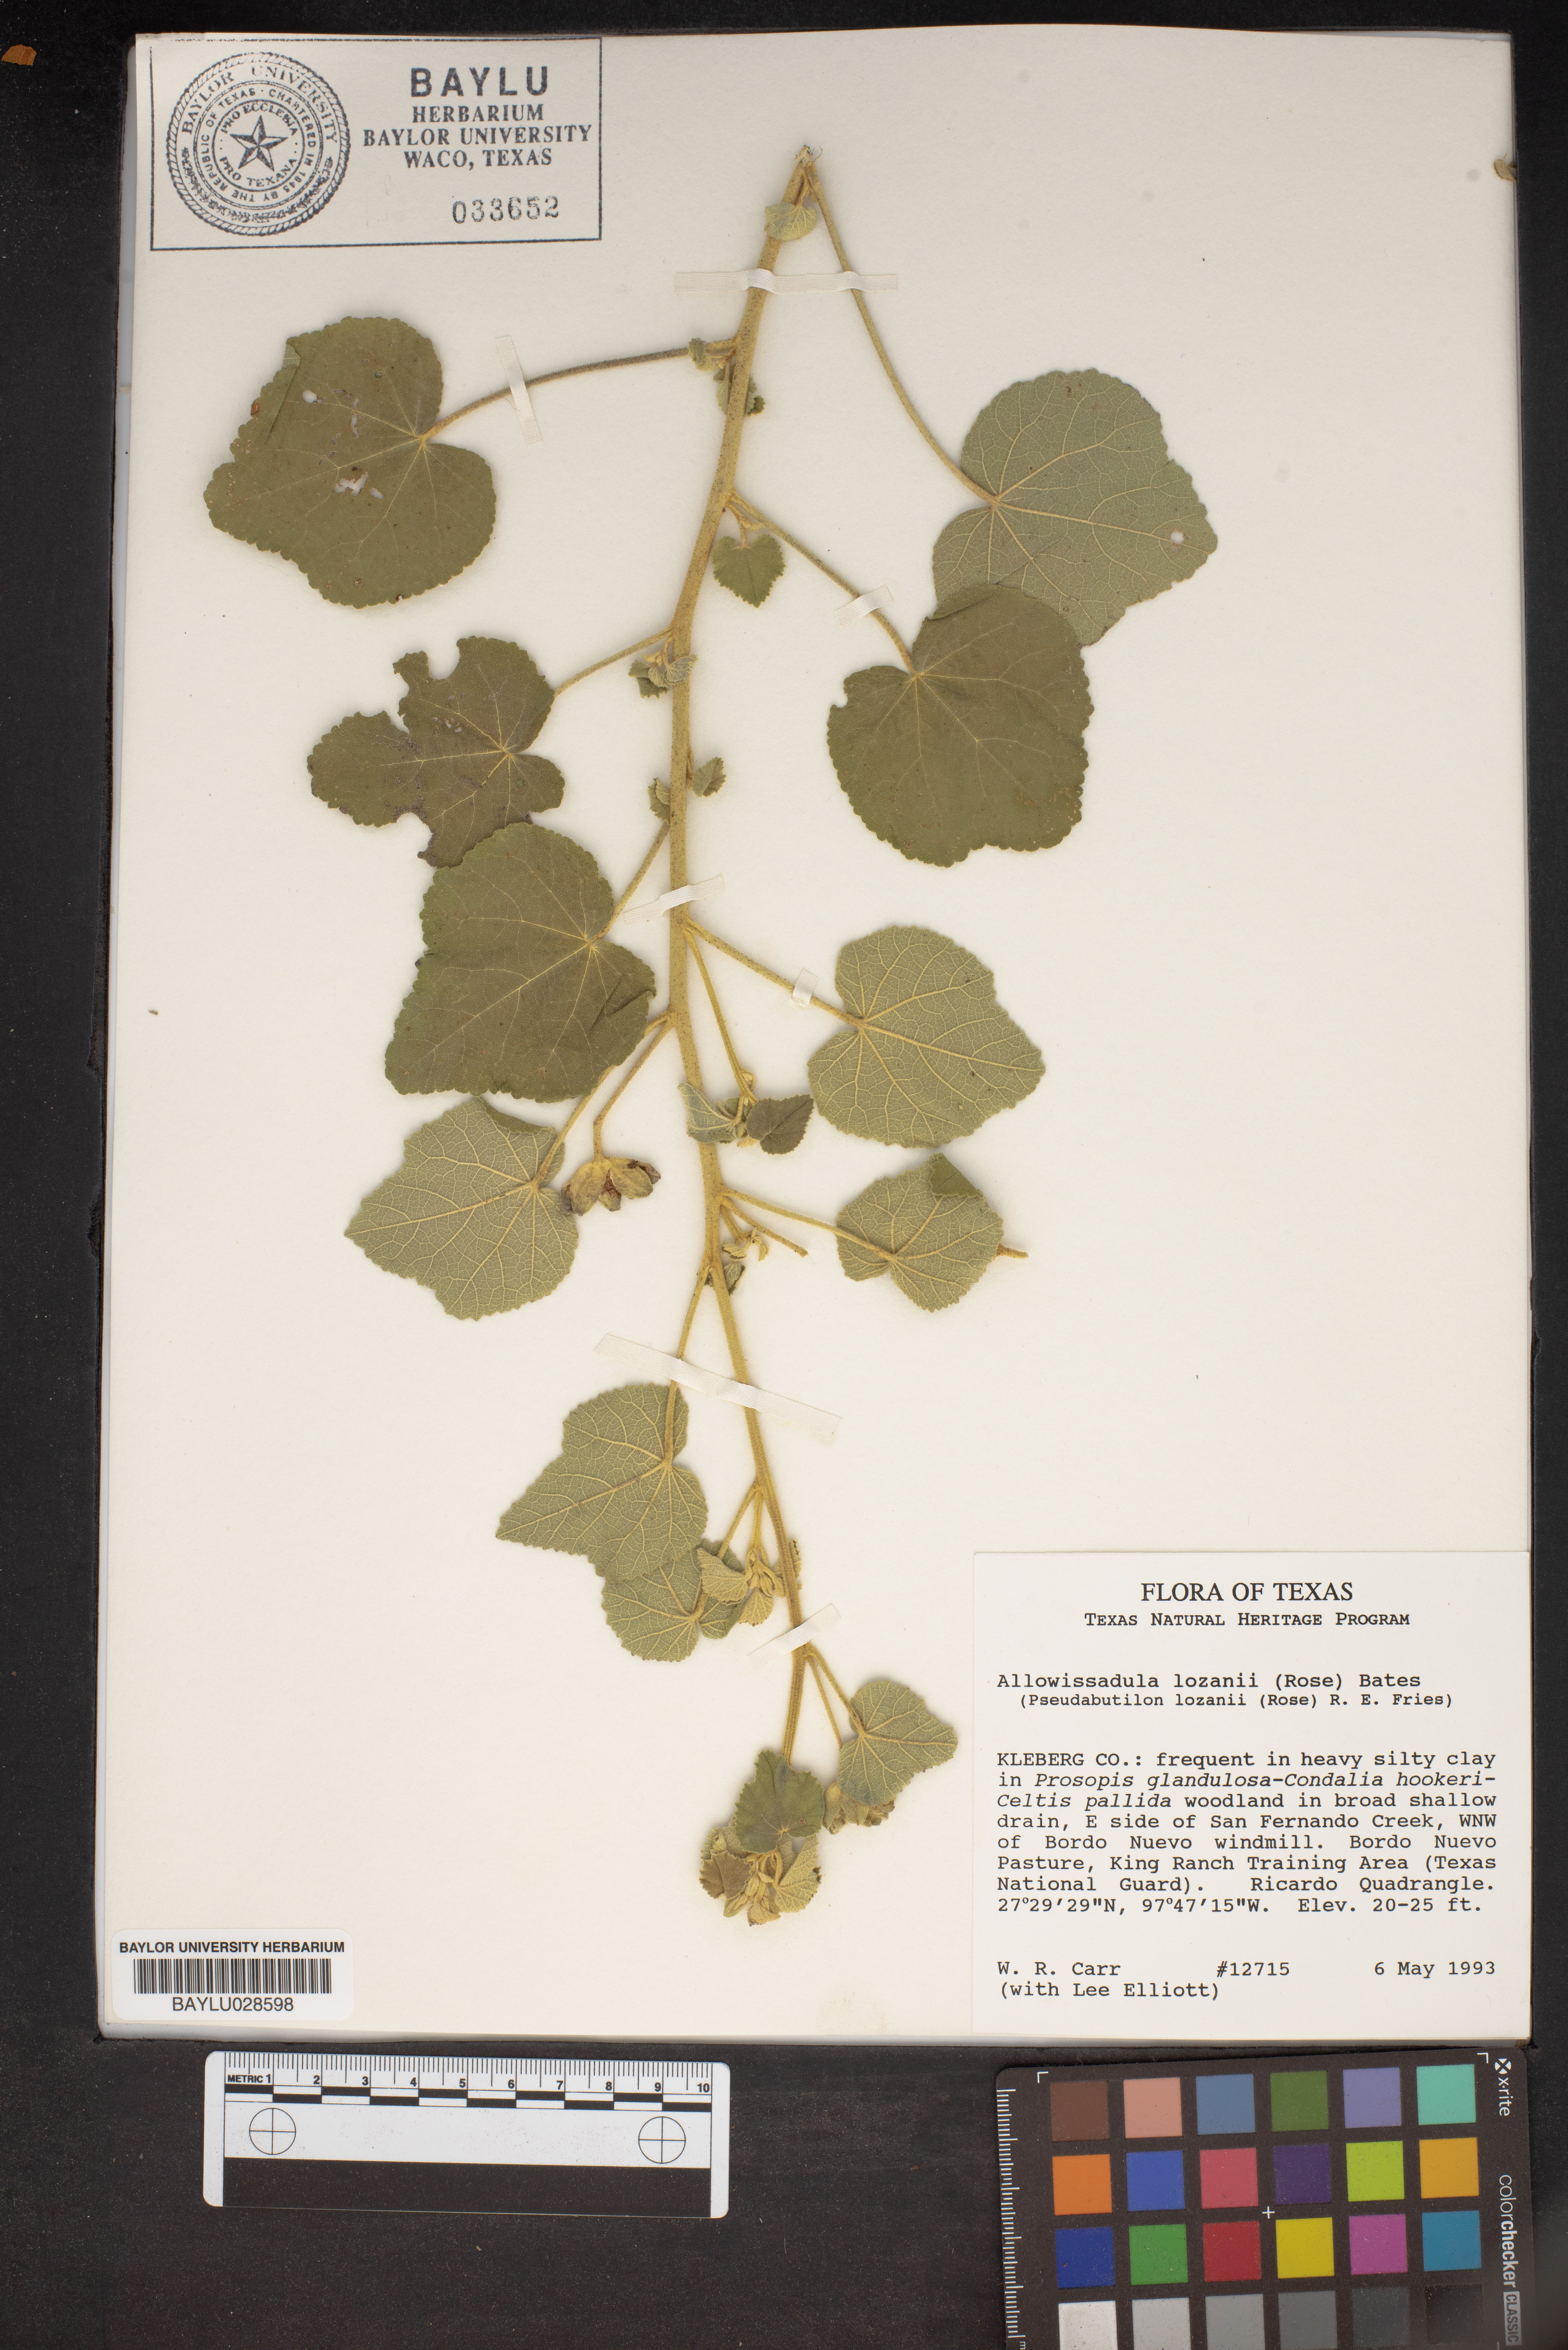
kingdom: Plantae
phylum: Tracheophyta
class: Magnoliopsida
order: Malvales
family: Malvaceae
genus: Allowissadula
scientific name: Allowissadula lozanii
